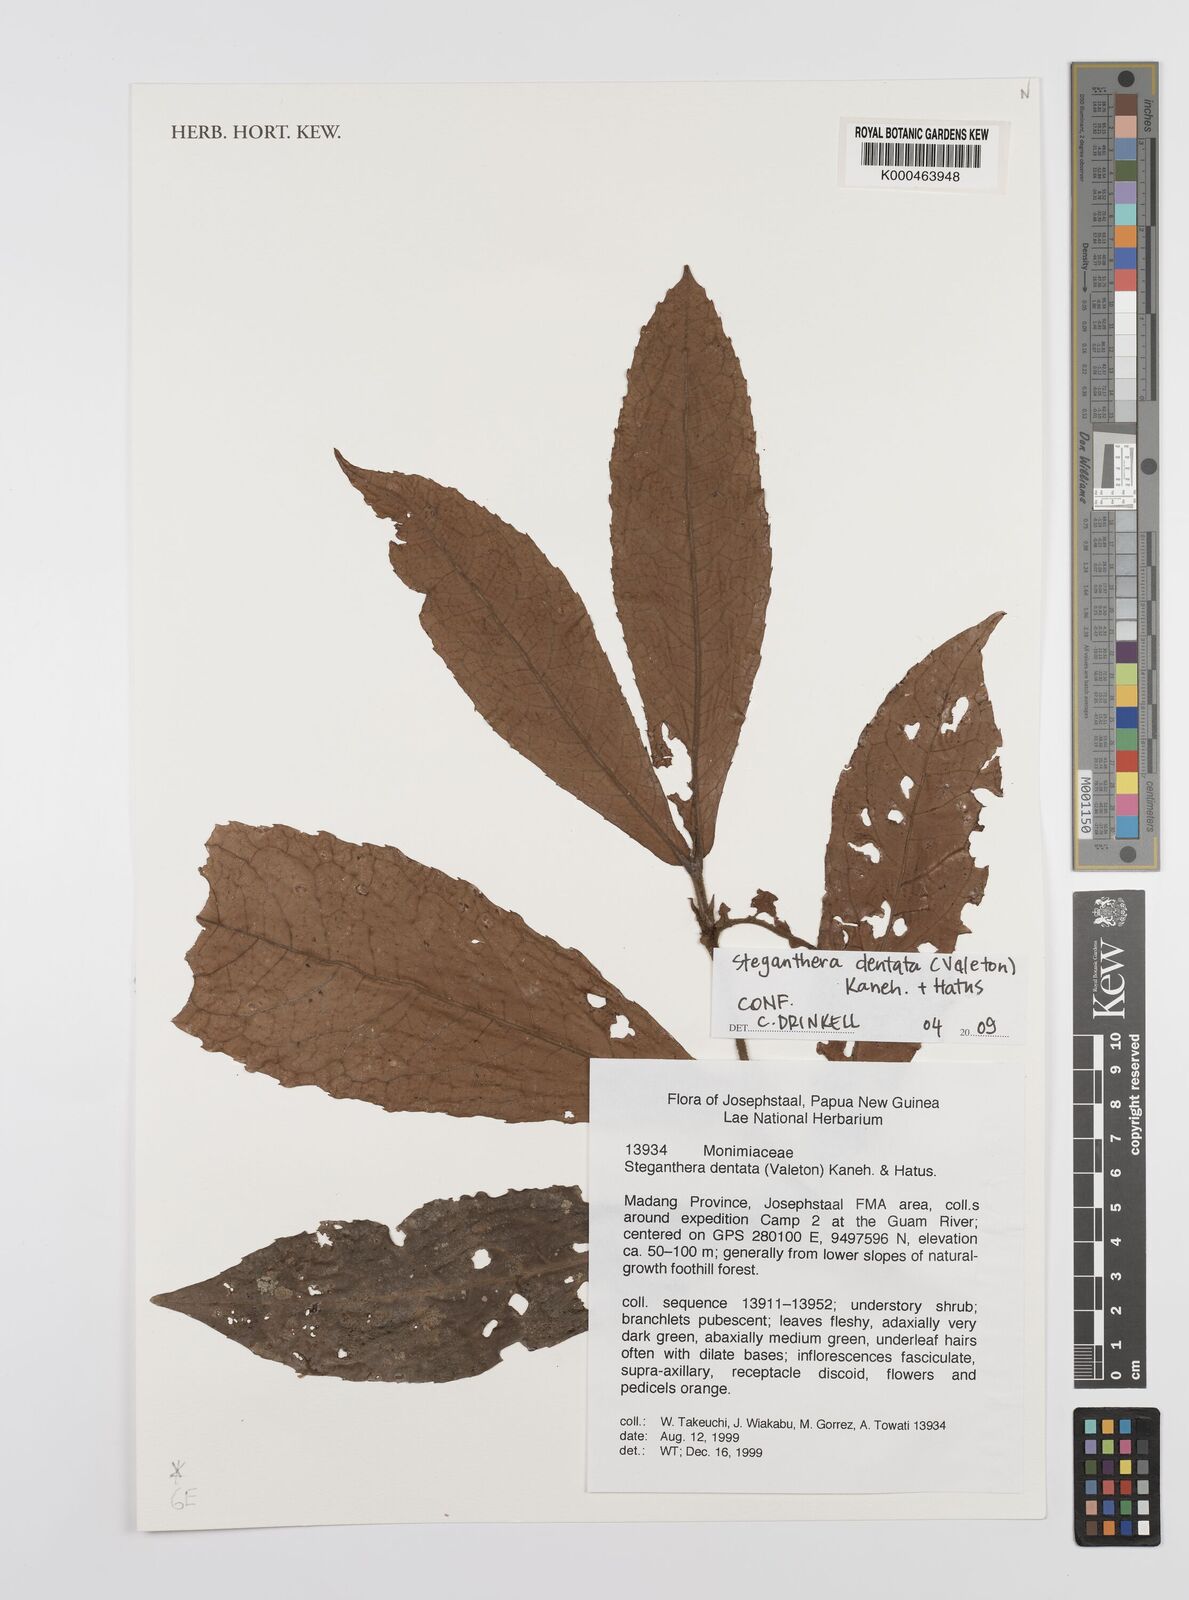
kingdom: Plantae
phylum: Tracheophyta
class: Magnoliopsida
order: Laurales
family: Monimiaceae
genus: Steganthera
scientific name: Steganthera dentata
